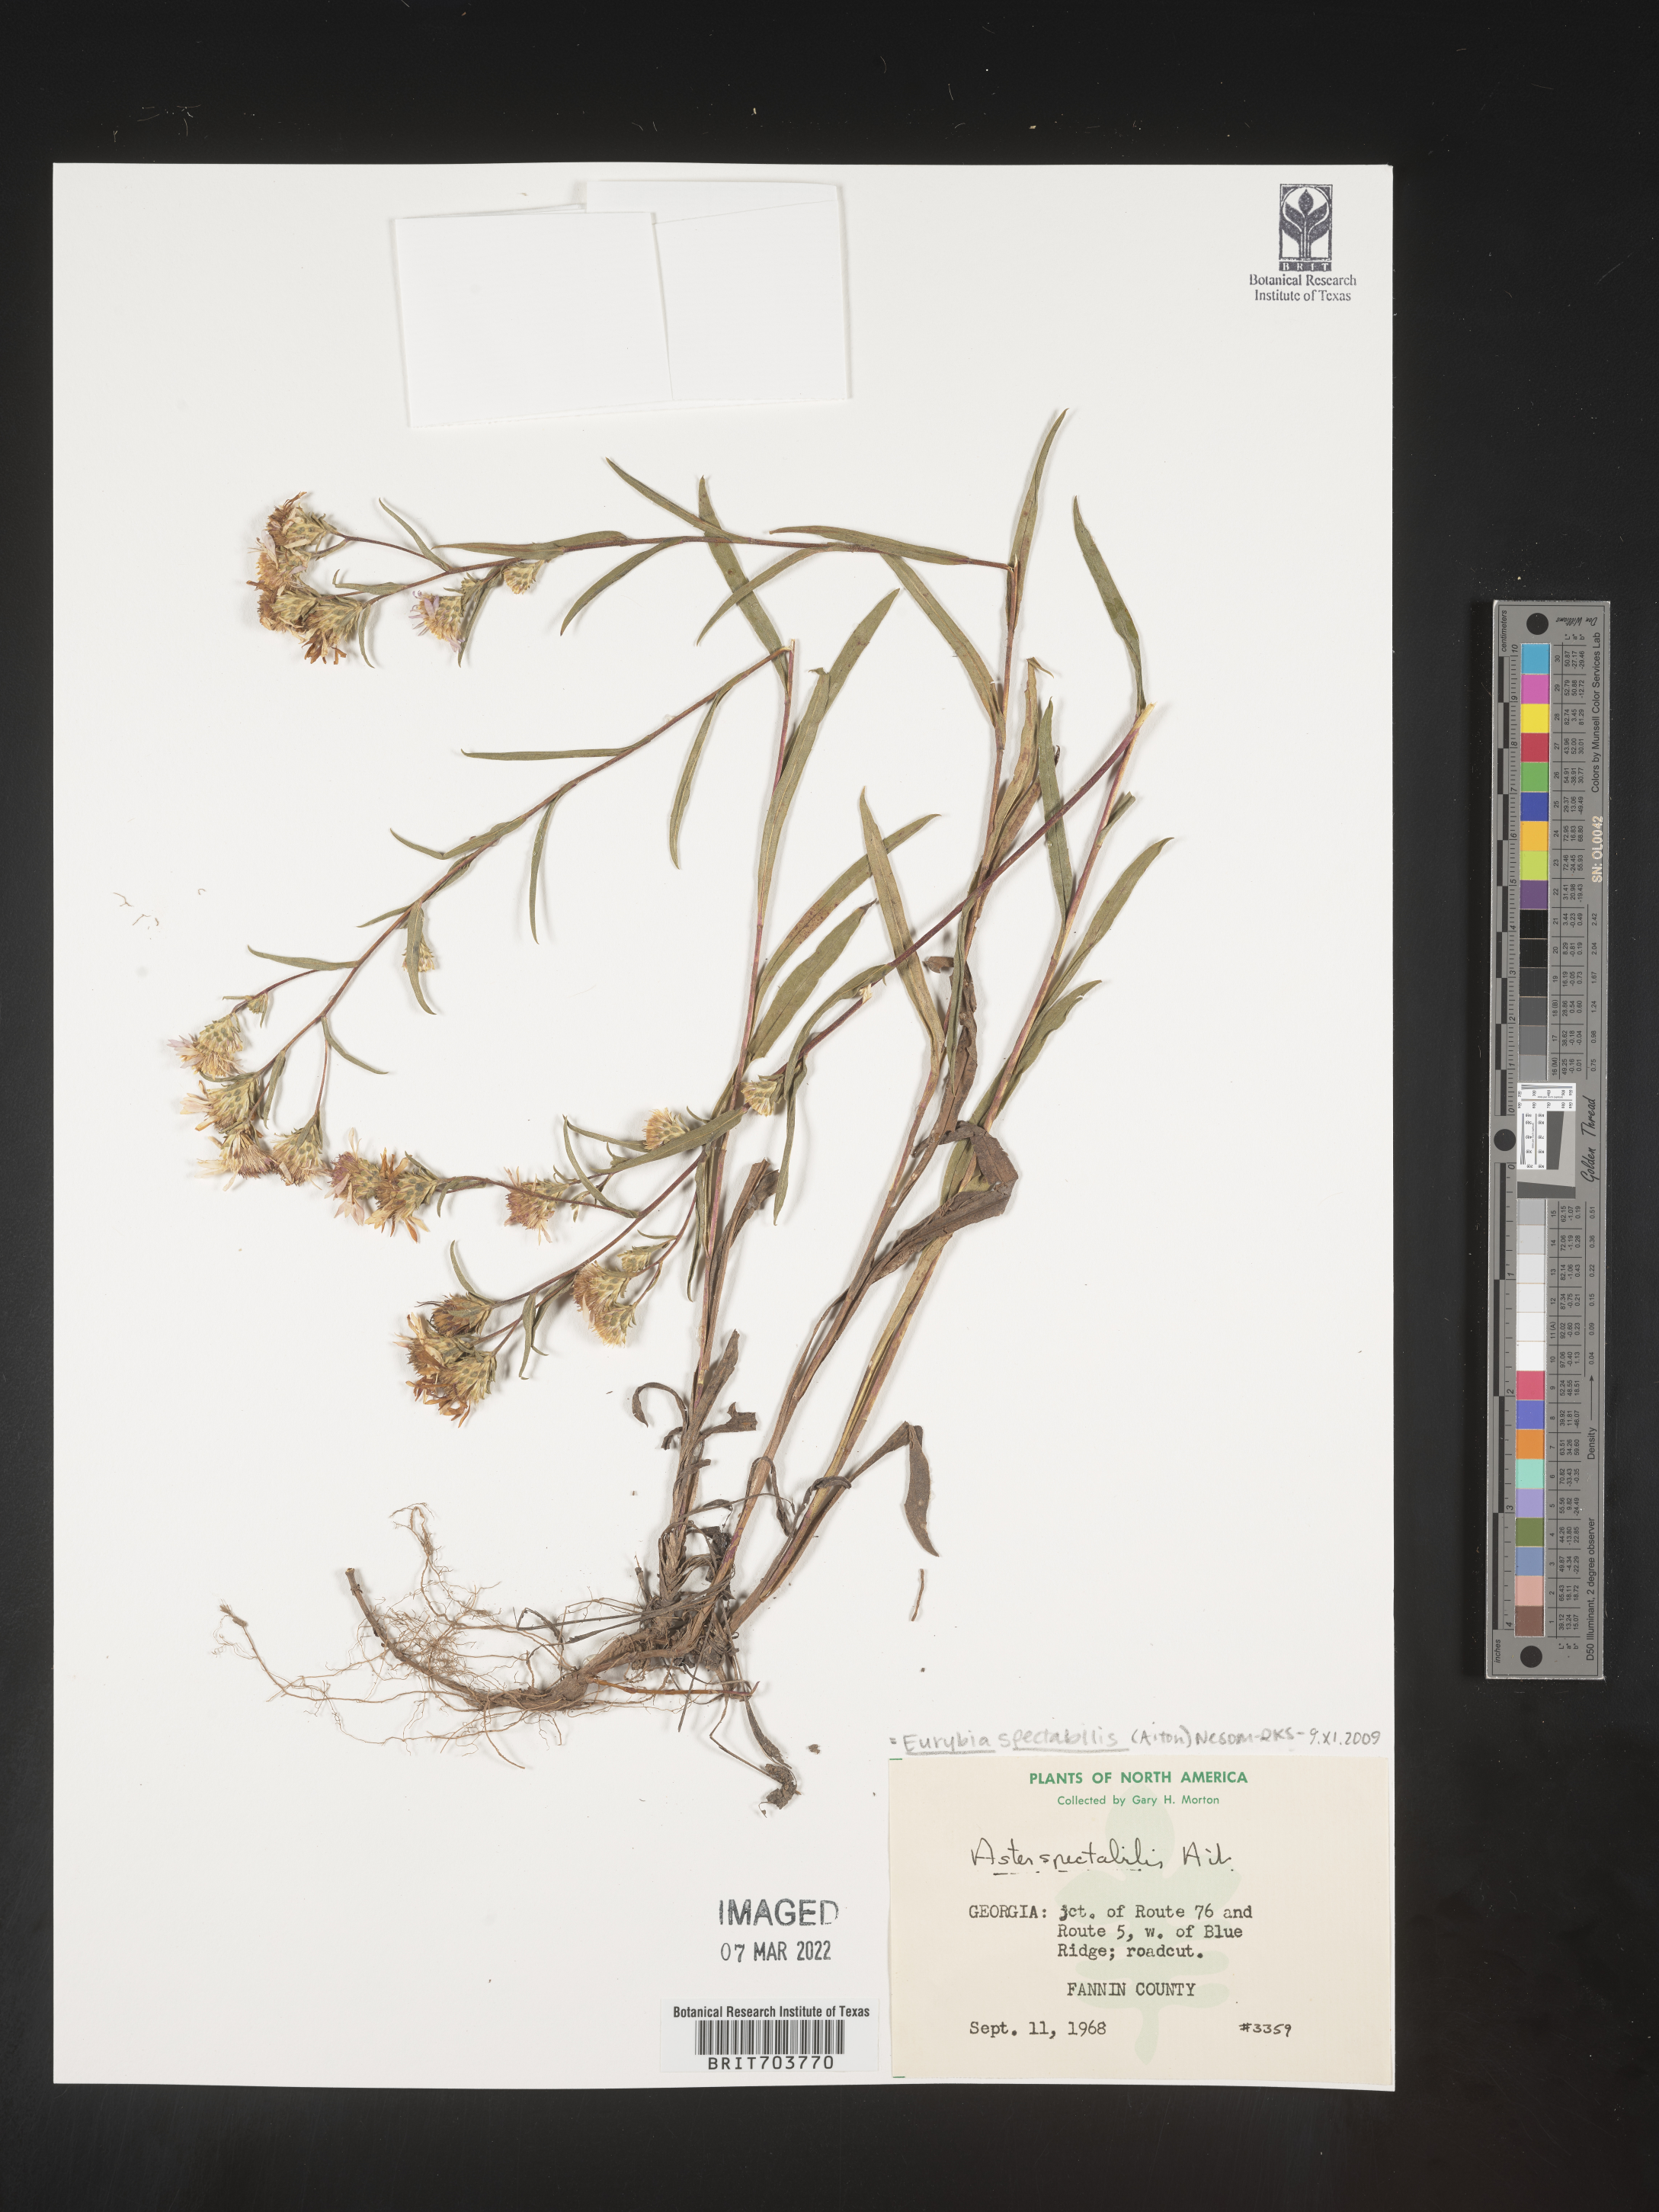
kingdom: Plantae
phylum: Tracheophyta
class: Magnoliopsida
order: Asterales
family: Asteraceae
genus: Eurybia
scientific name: Eurybia spectabilis
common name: Low showy aster
